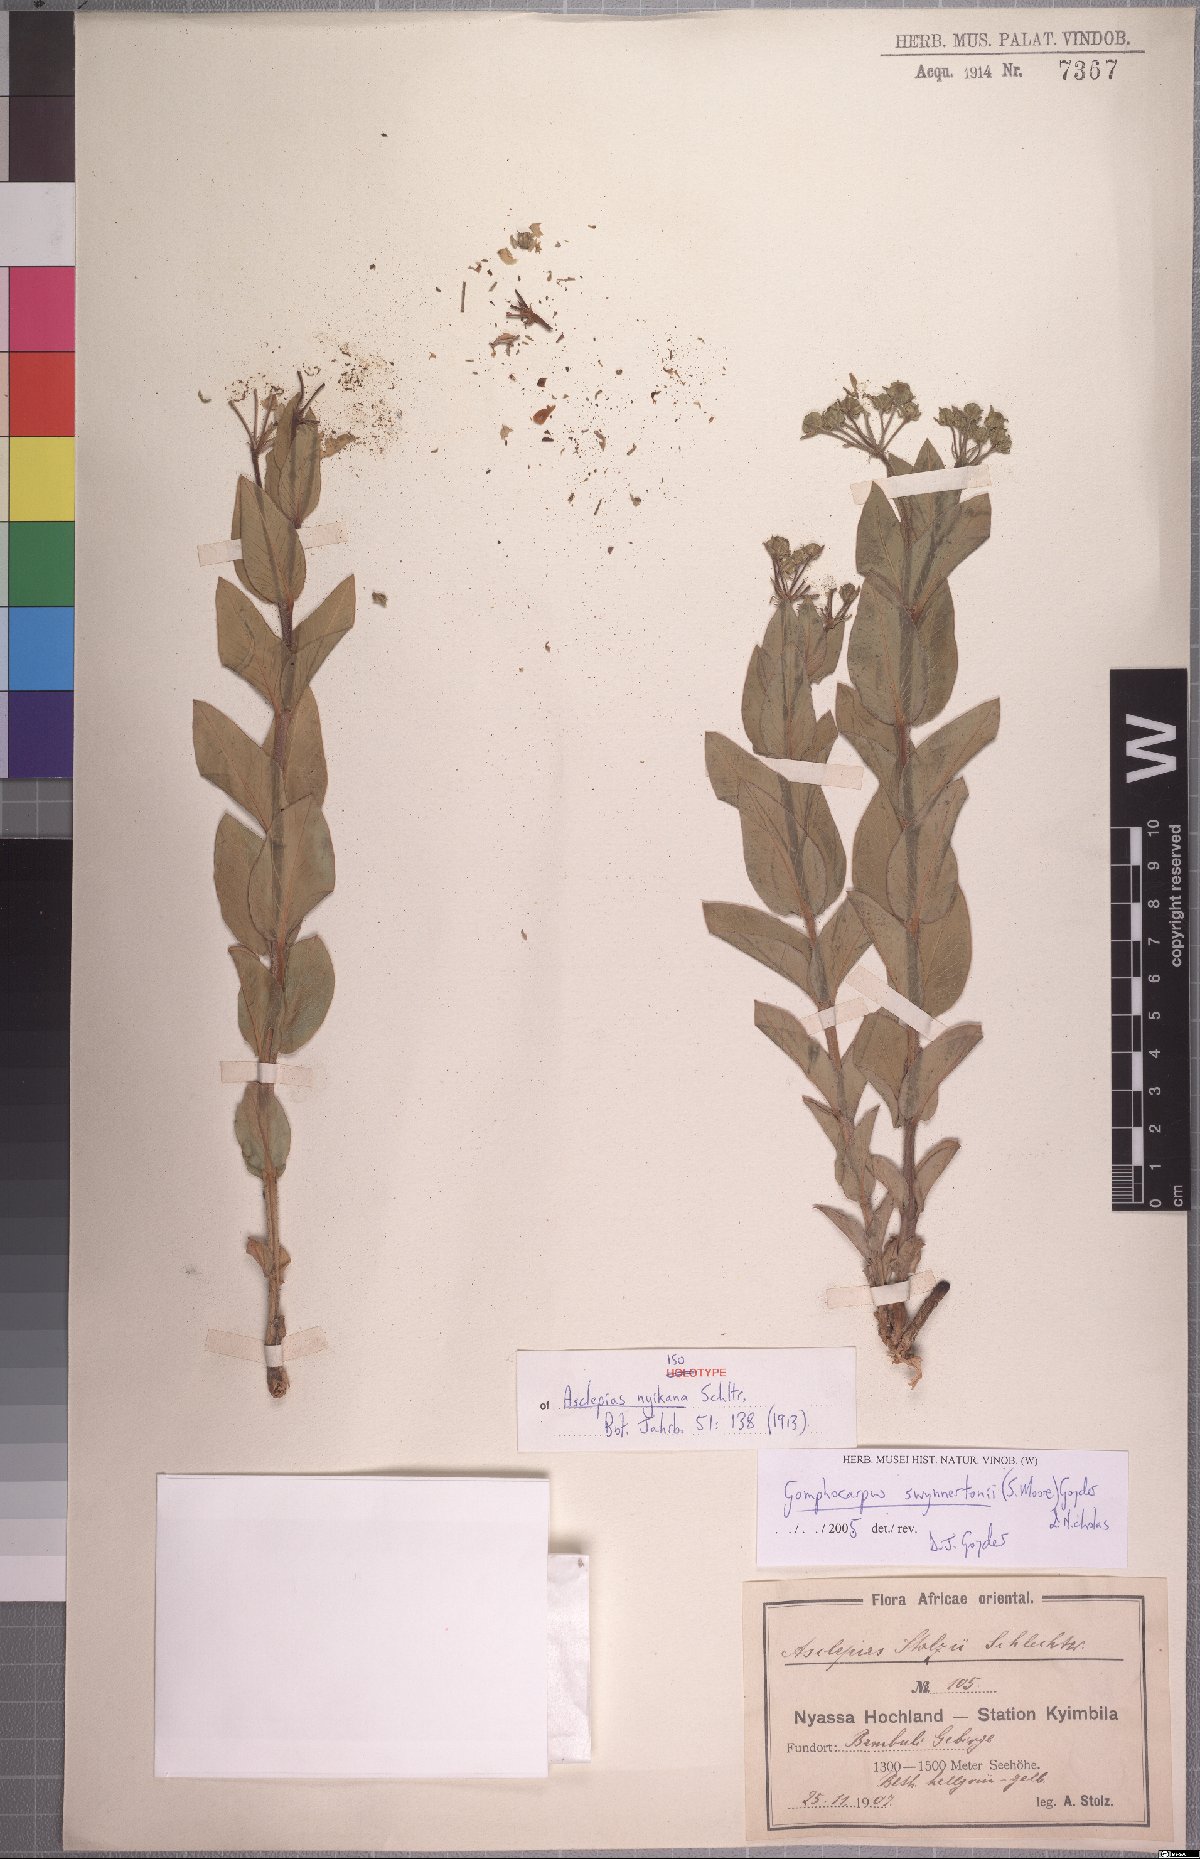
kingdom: Plantae
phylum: Tracheophyta
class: Magnoliopsida
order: Gentianales
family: Apocynaceae
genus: Gomphocarpus
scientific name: Gomphocarpus swynnertonii
